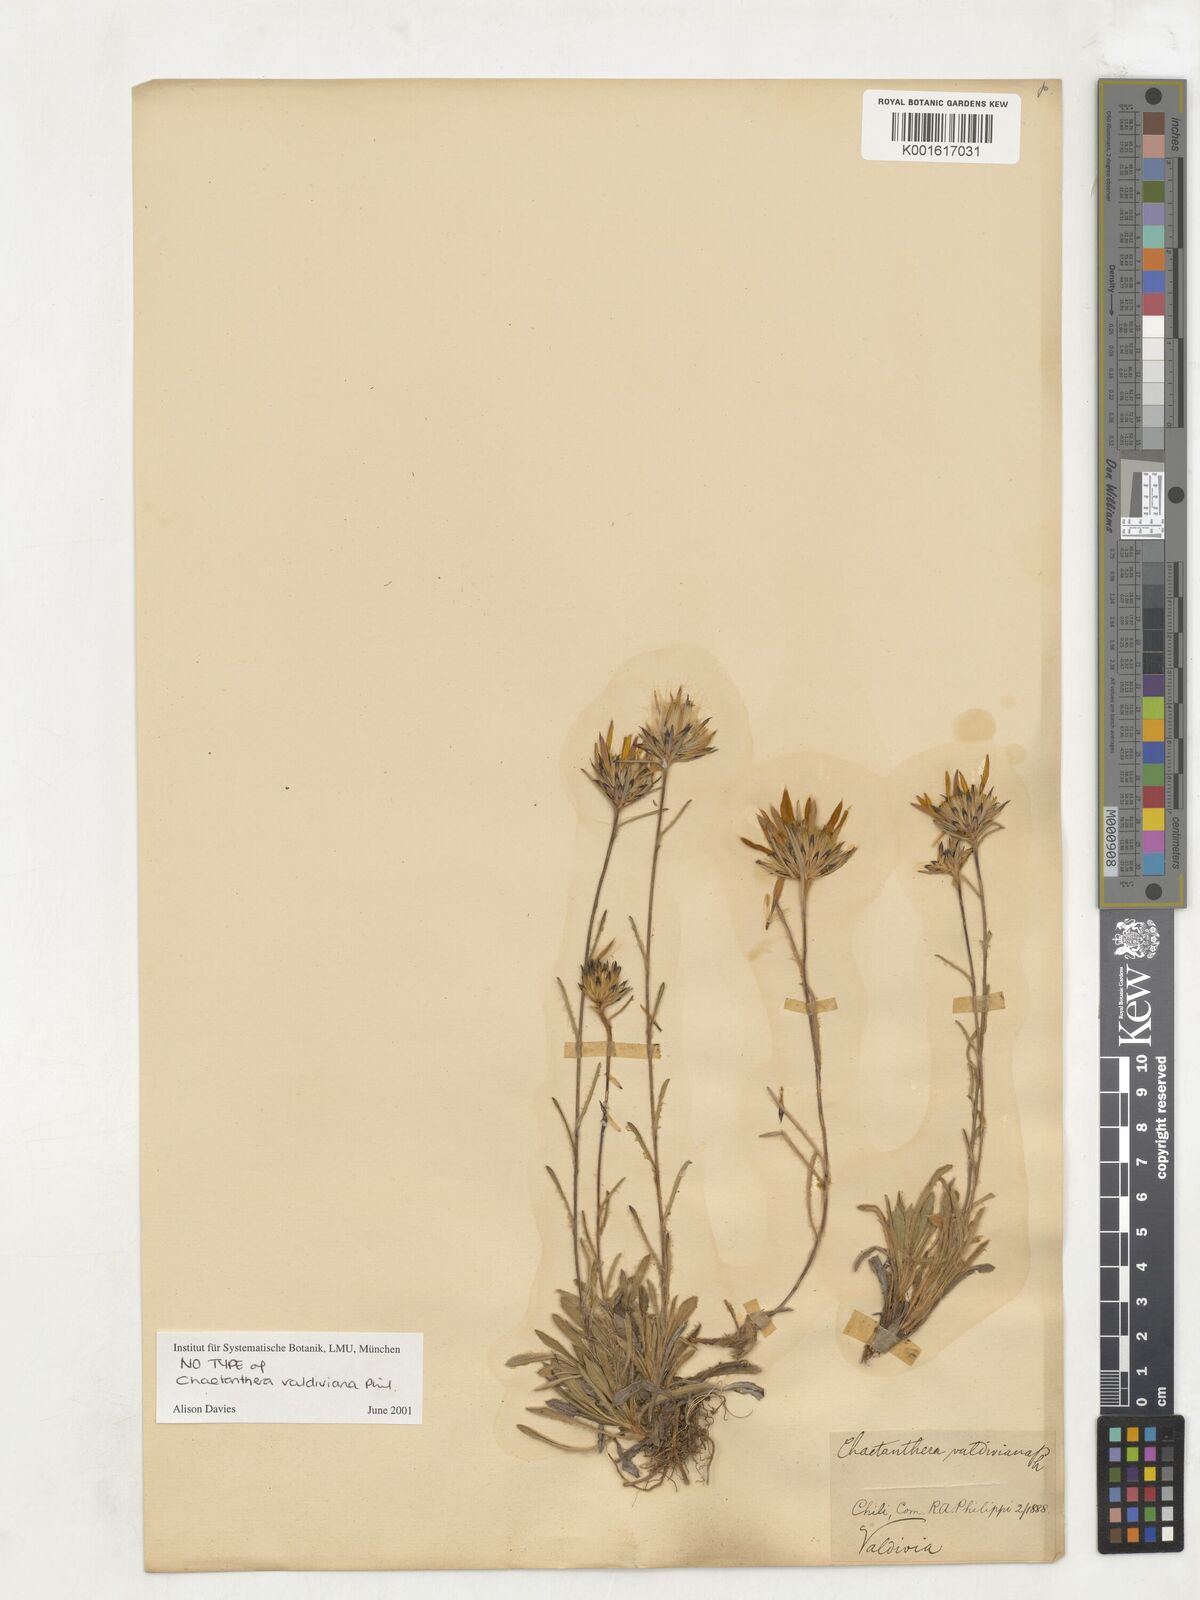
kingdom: Plantae
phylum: Tracheophyta
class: Magnoliopsida
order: Asterales
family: Asteraceae
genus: Chaetanthera
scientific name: Chaetanthera elegans
